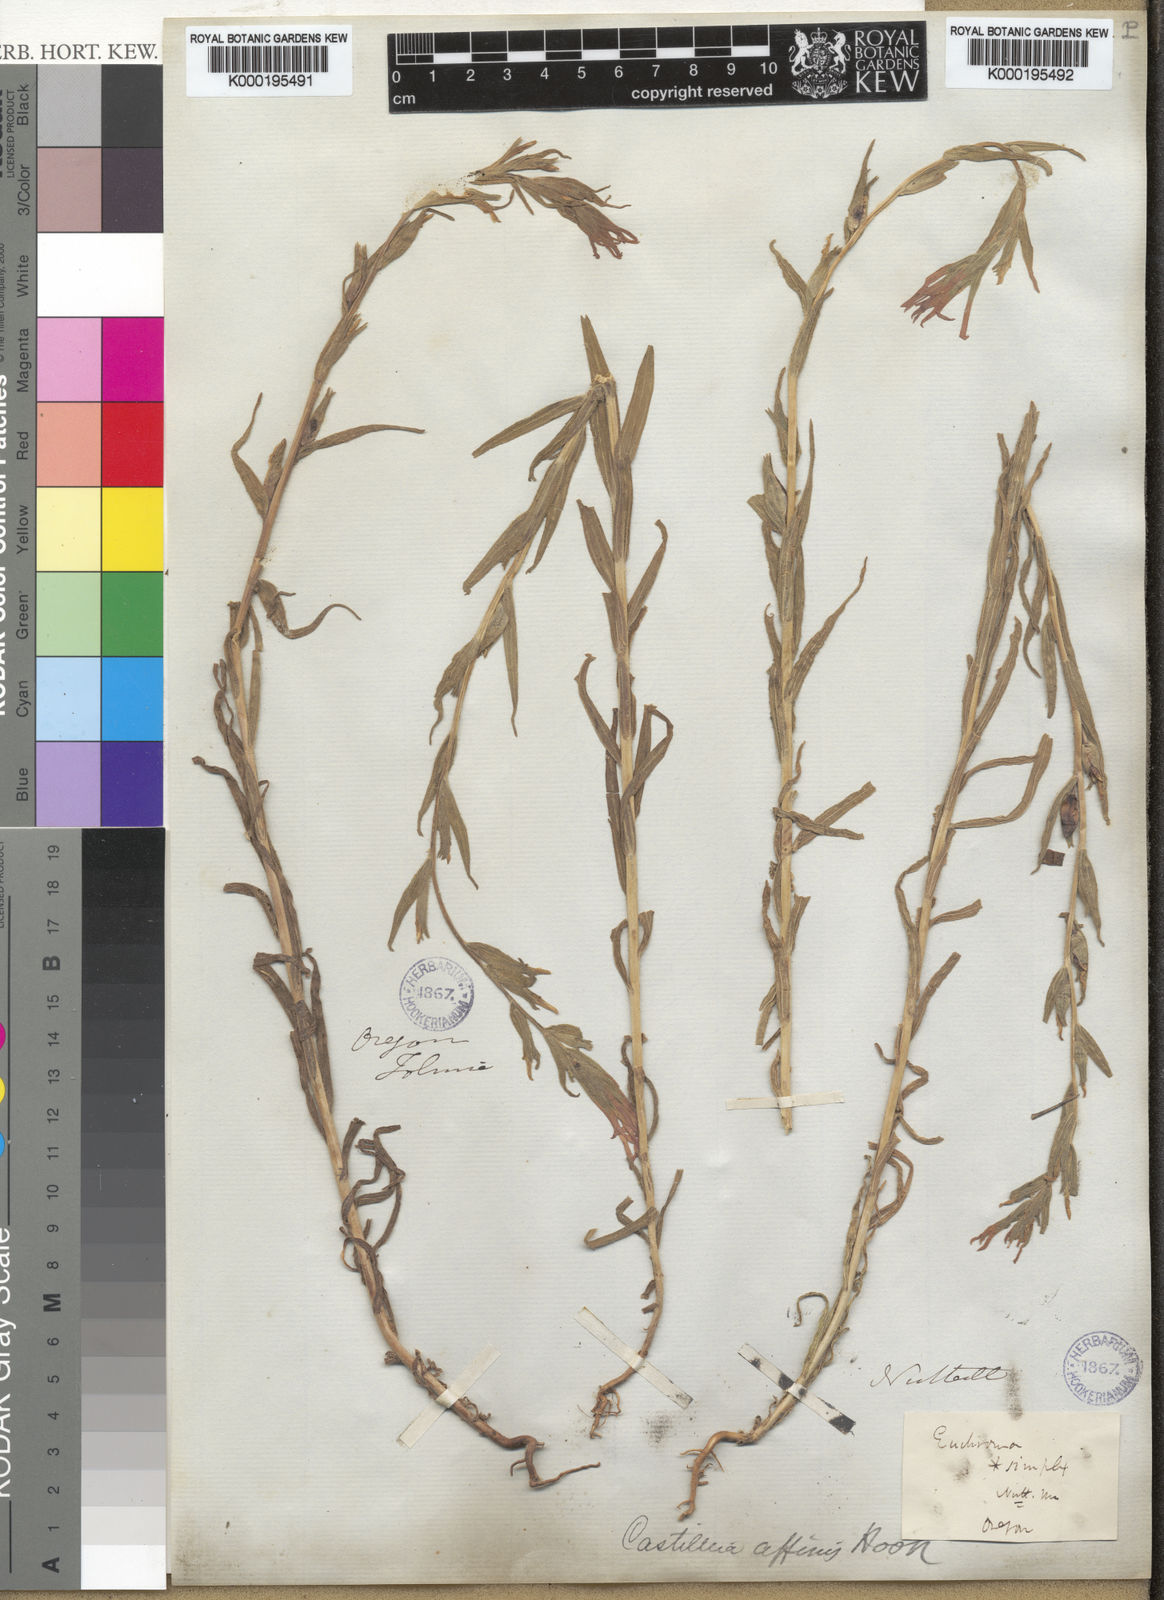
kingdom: Plantae
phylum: Tracheophyta
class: Magnoliopsida
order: Lamiales
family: Orobanchaceae
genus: Castilleja
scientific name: Castilleja minor
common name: Seep paintbrush
